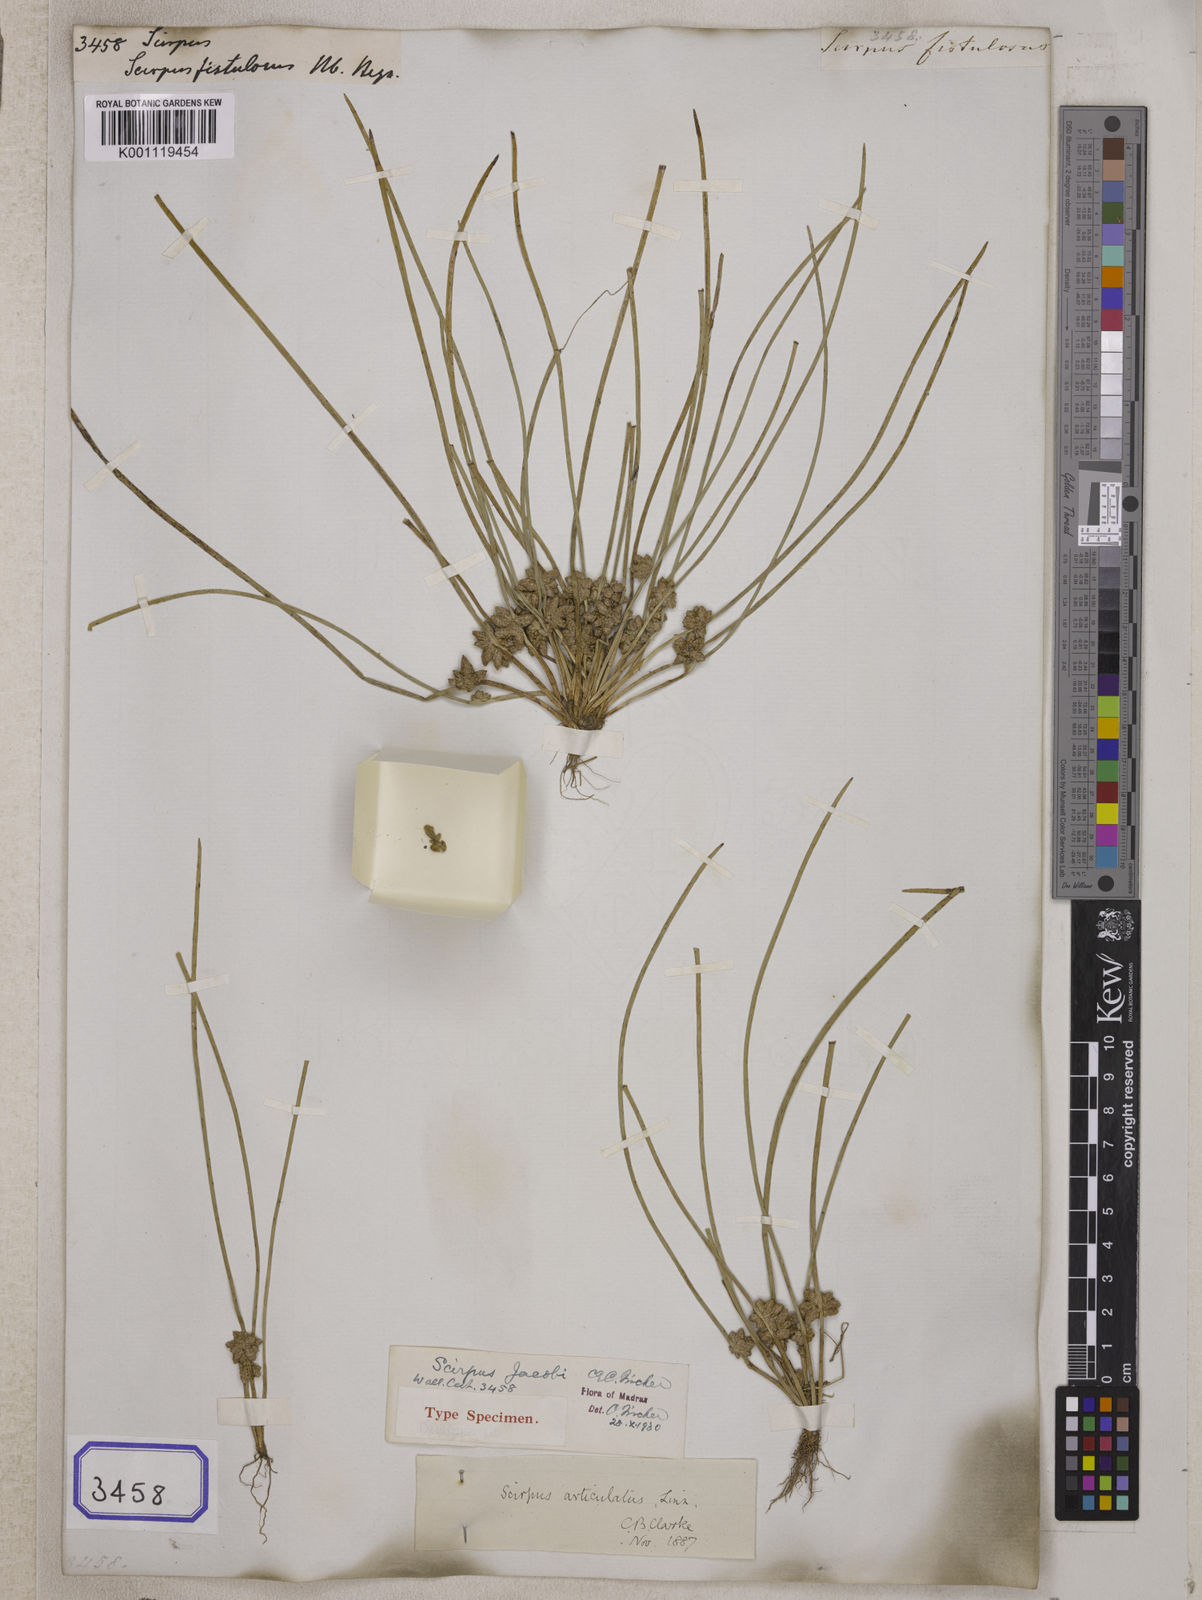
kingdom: Plantae
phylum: Tracheophyta
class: Liliopsida
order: Poales
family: Cyperaceae
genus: Scirpus
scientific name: Scirpus
